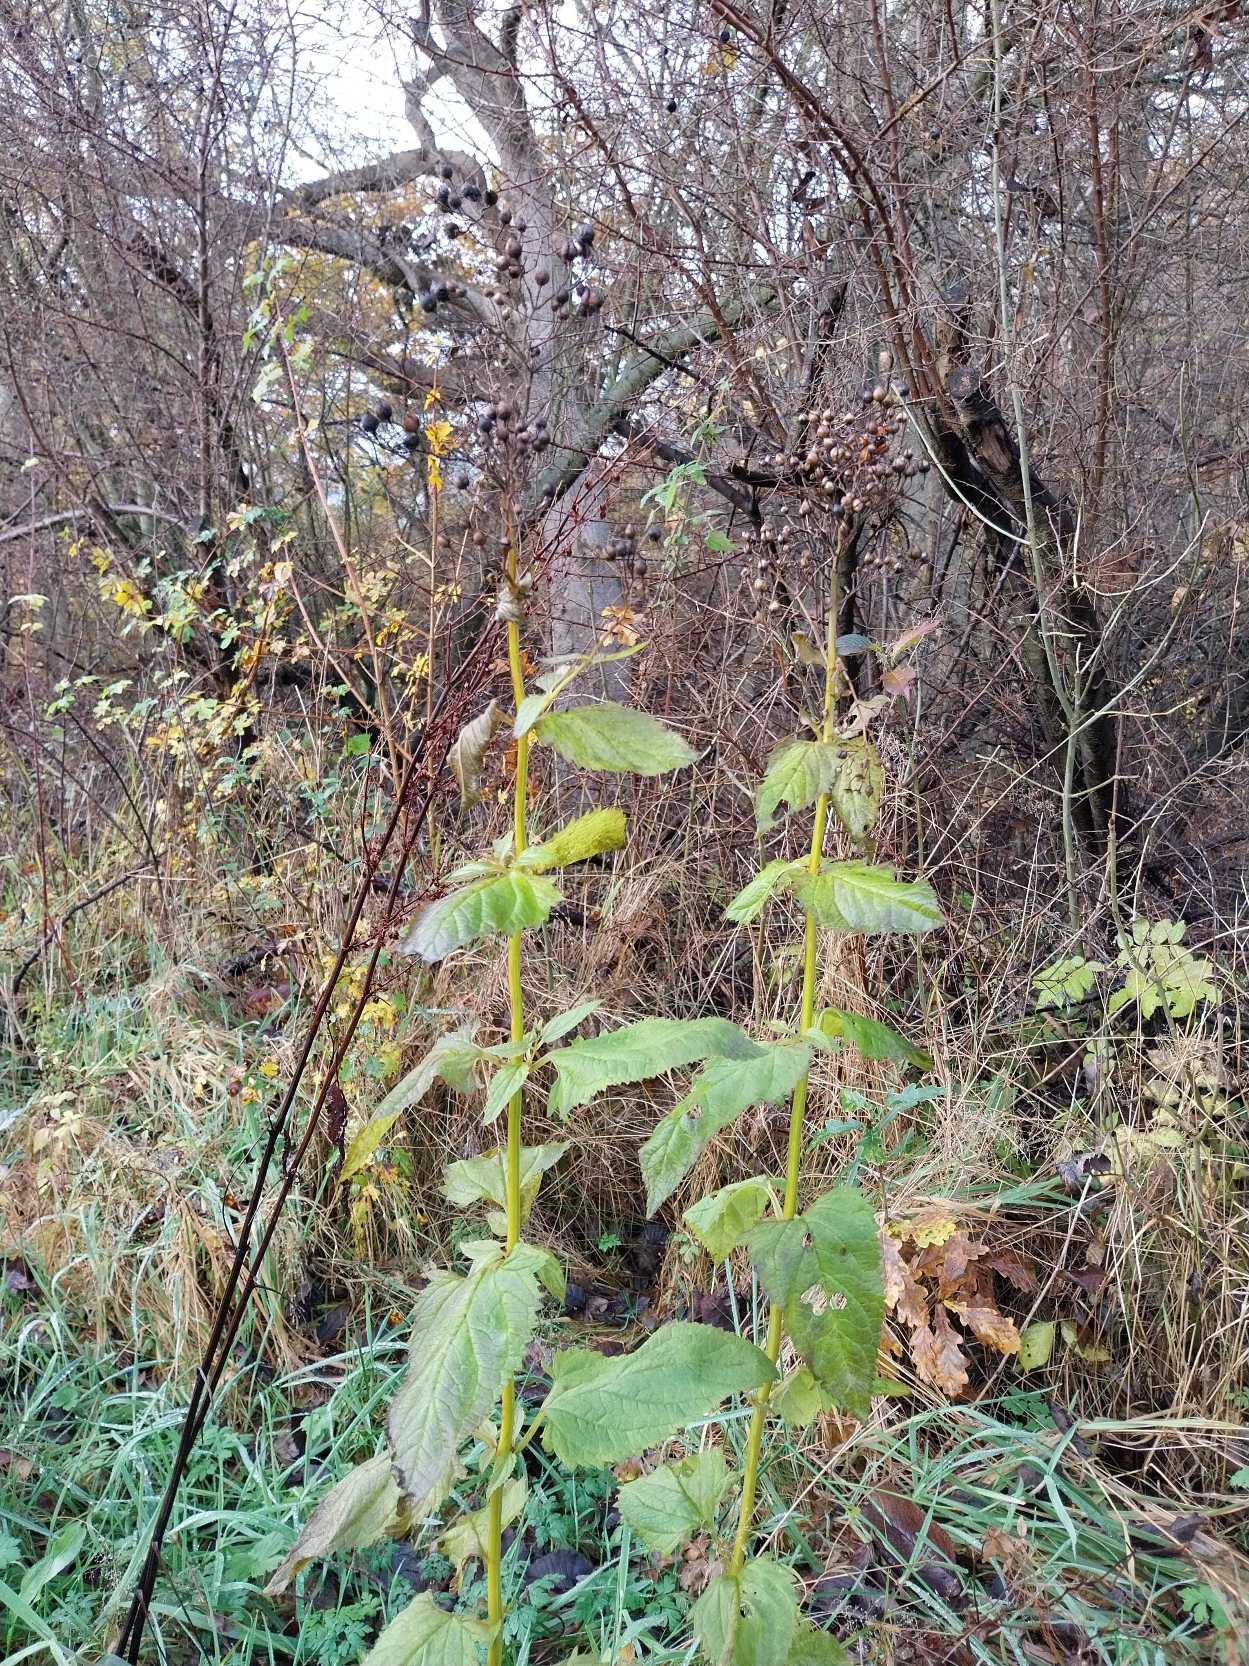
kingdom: Plantae
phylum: Tracheophyta
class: Magnoliopsida
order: Lamiales
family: Scrophulariaceae
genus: Scrophularia
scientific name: Scrophularia nodosa
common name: Knoldet brunrod
